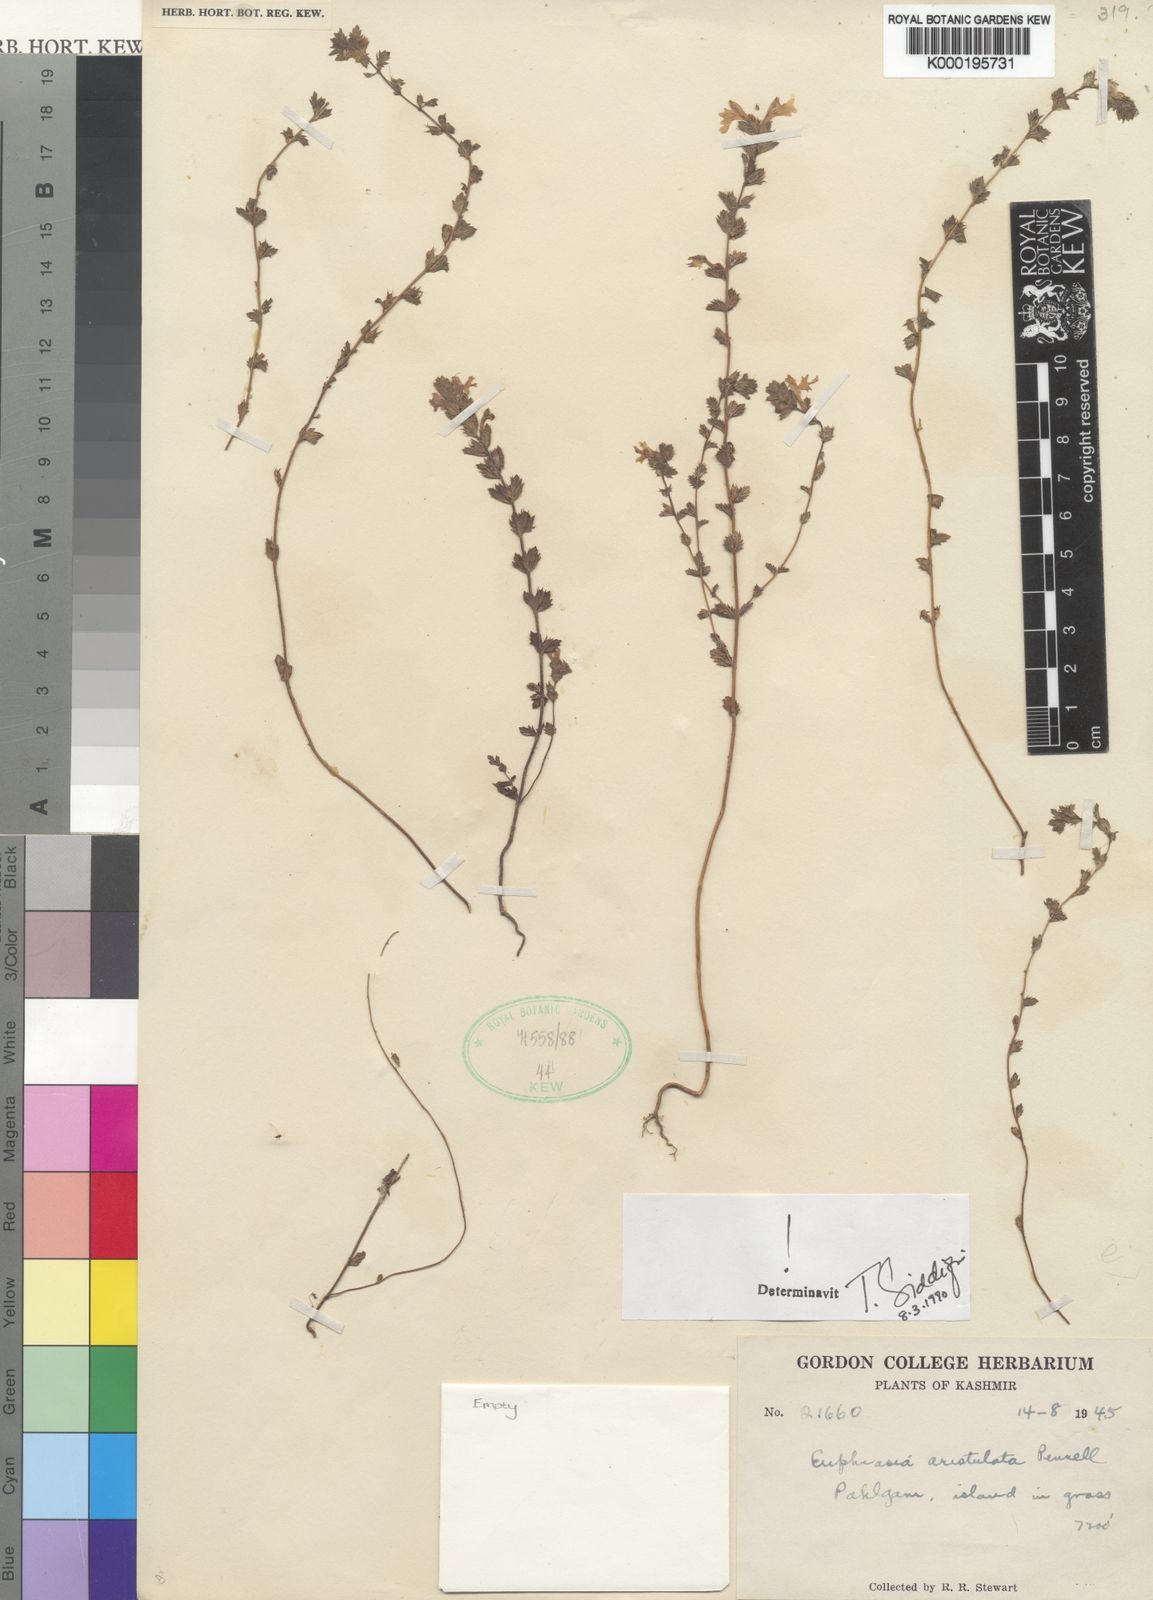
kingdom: Plantae
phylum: Tracheophyta
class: Magnoliopsida
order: Lamiales
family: Orobanchaceae
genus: Euphrasia
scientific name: Euphrasia aristulata
